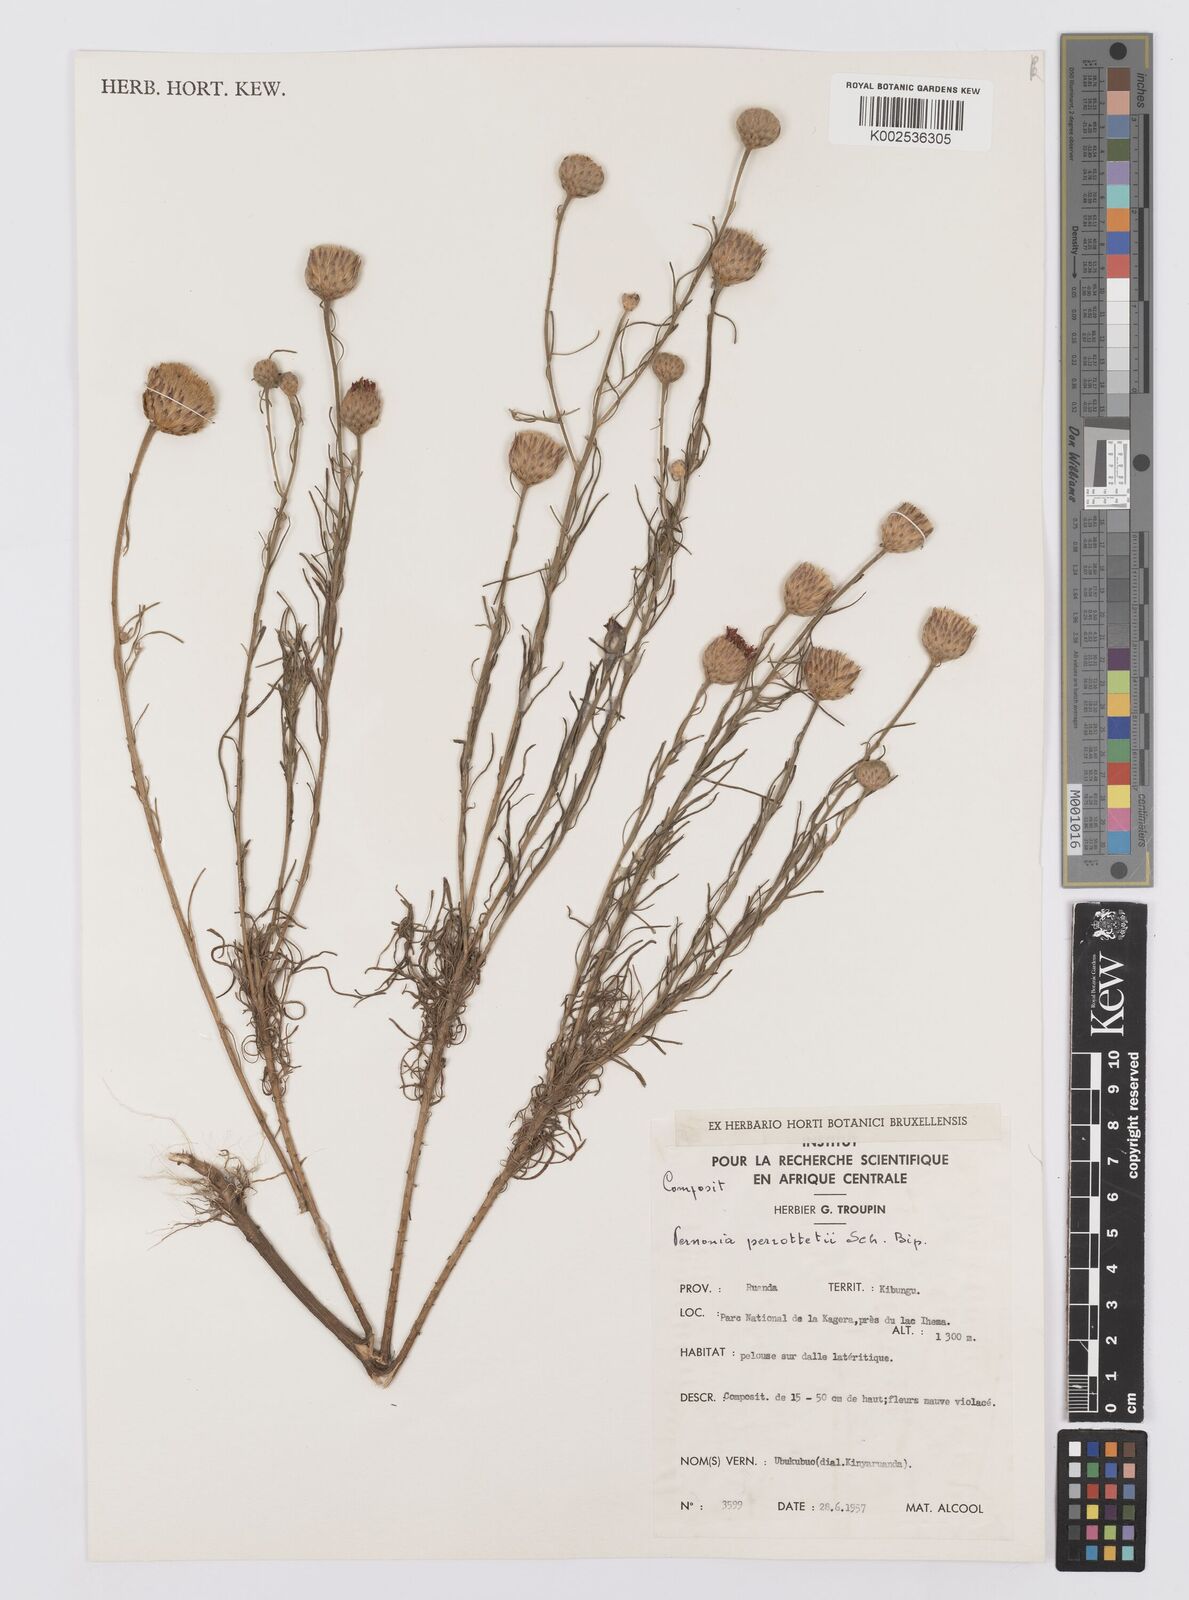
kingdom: Plantae
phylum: Tracheophyta
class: Magnoliopsida
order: Asterales
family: Asteraceae
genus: Crystallopollen
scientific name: Crystallopollen serratuloides
